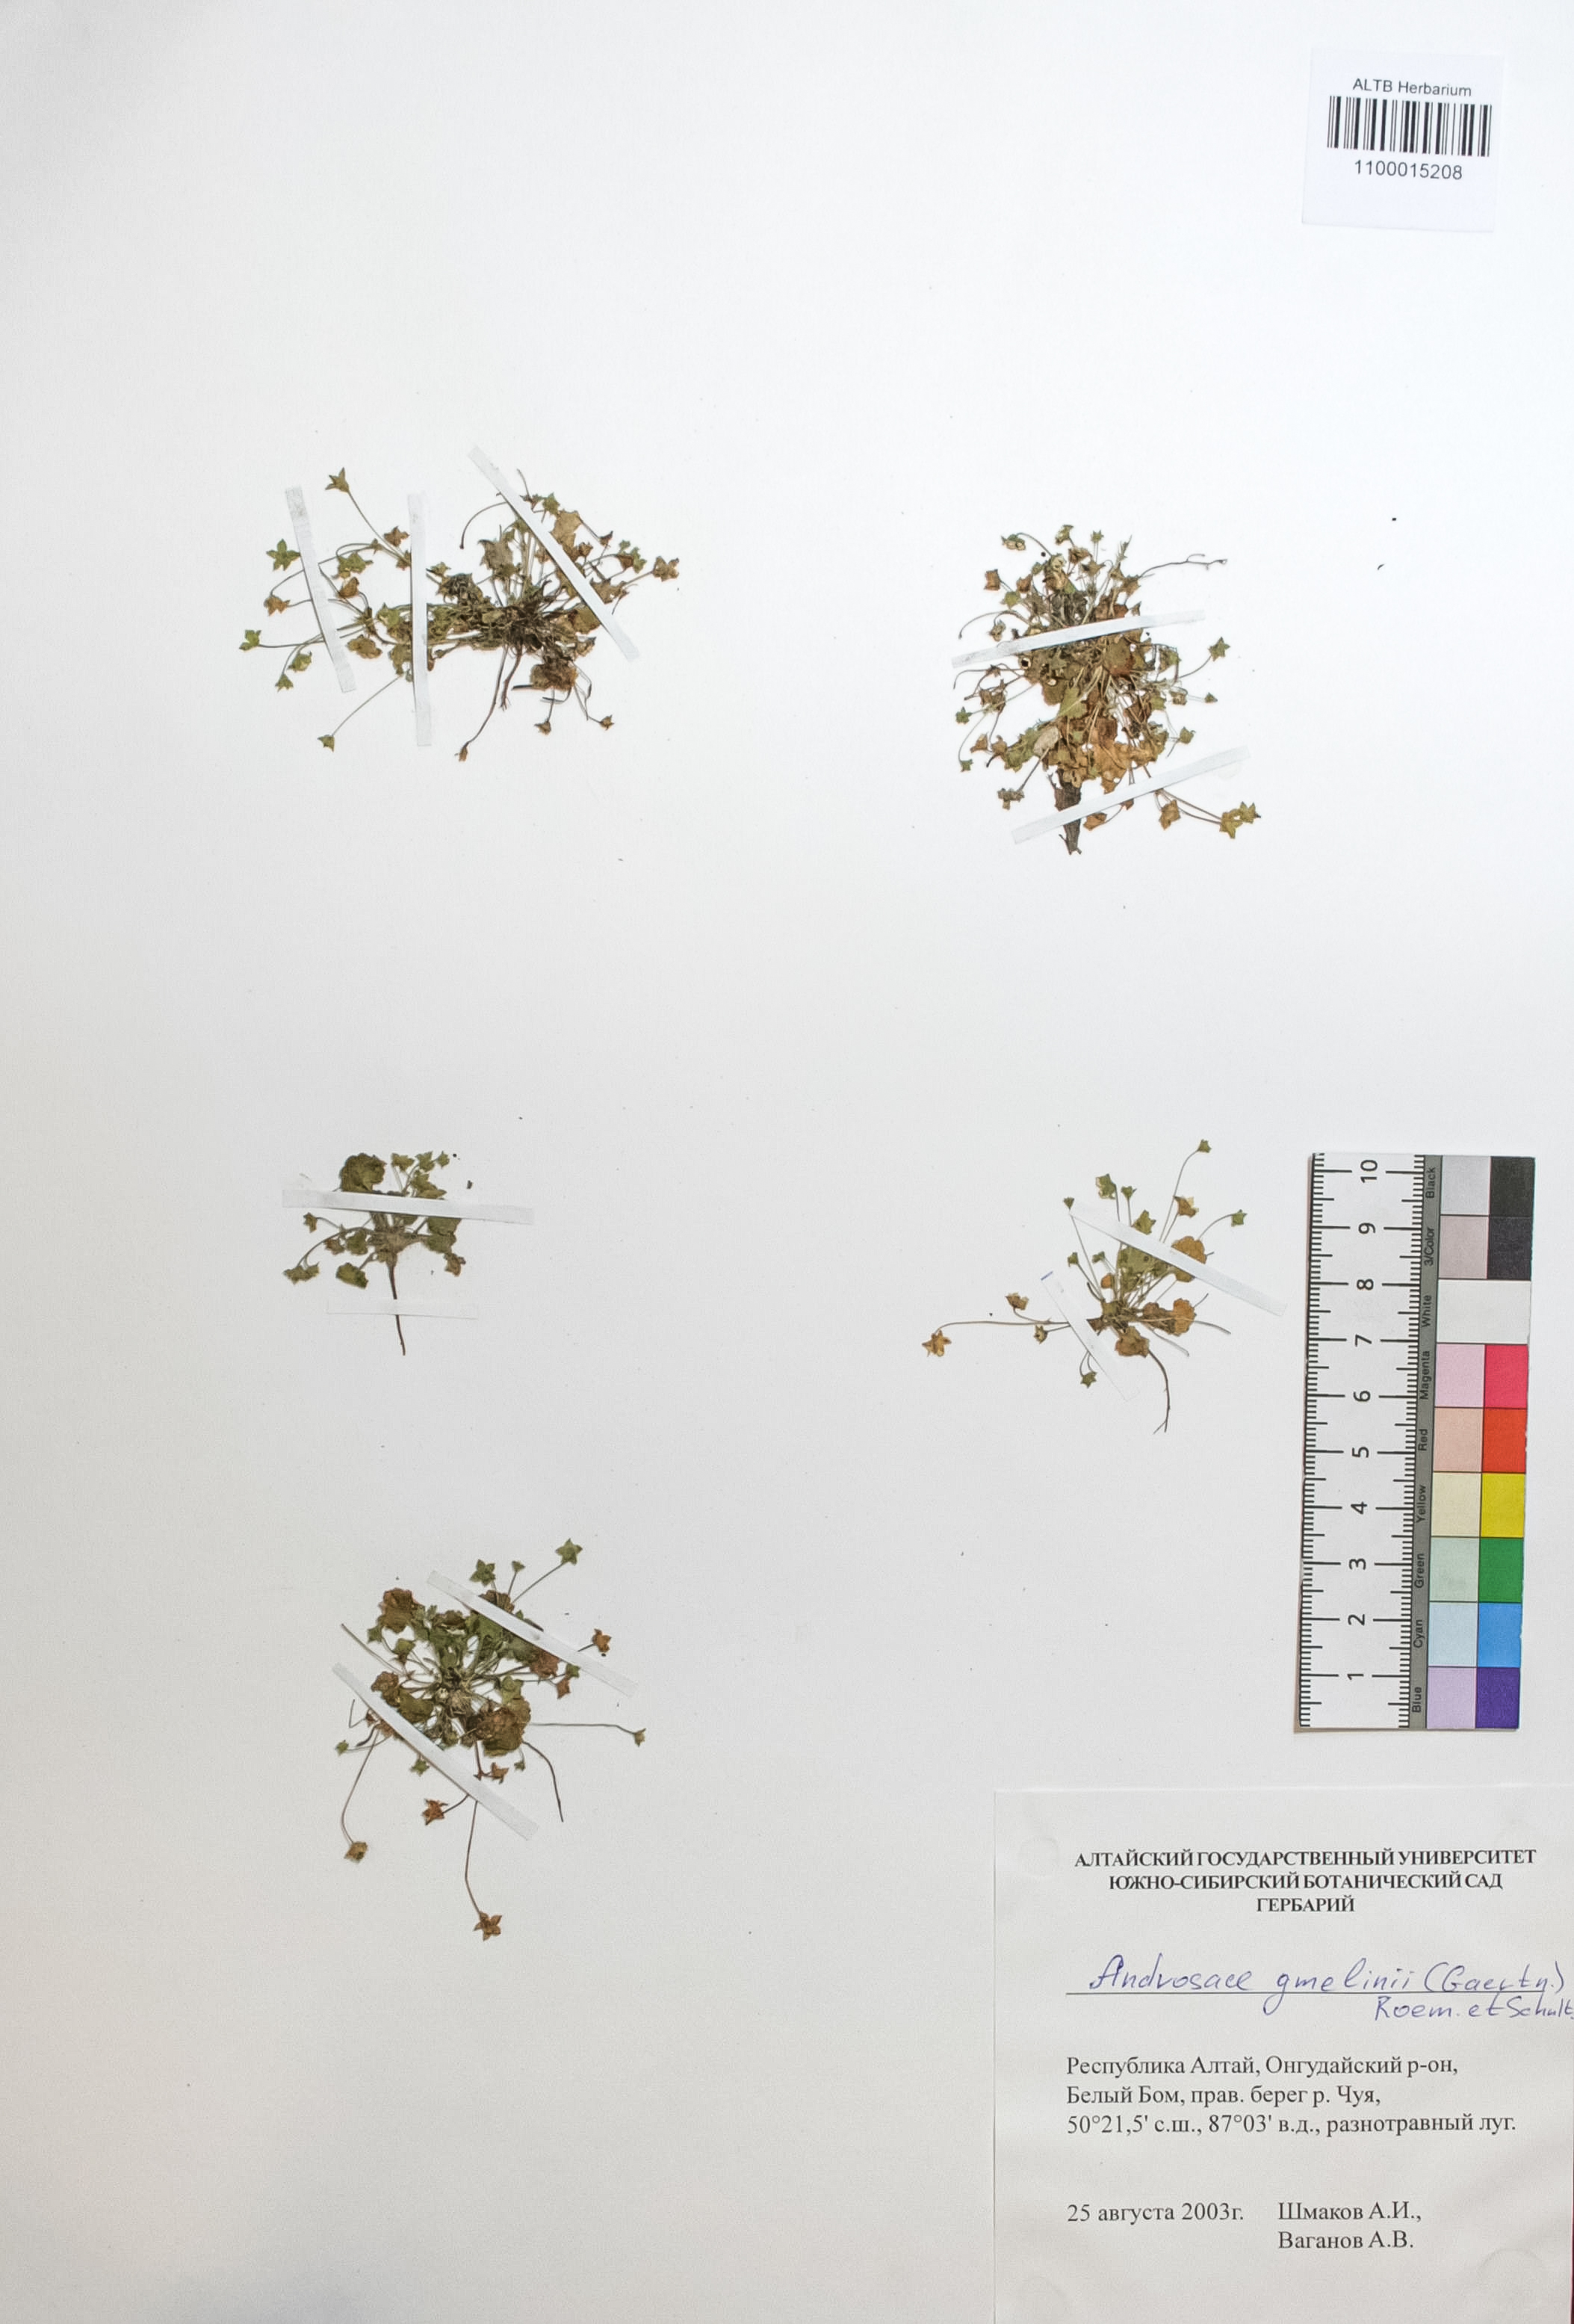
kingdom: Plantae
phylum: Tracheophyta
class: Magnoliopsida
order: Ericales
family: Primulaceae
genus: Androsace
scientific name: Androsace gmelinii
